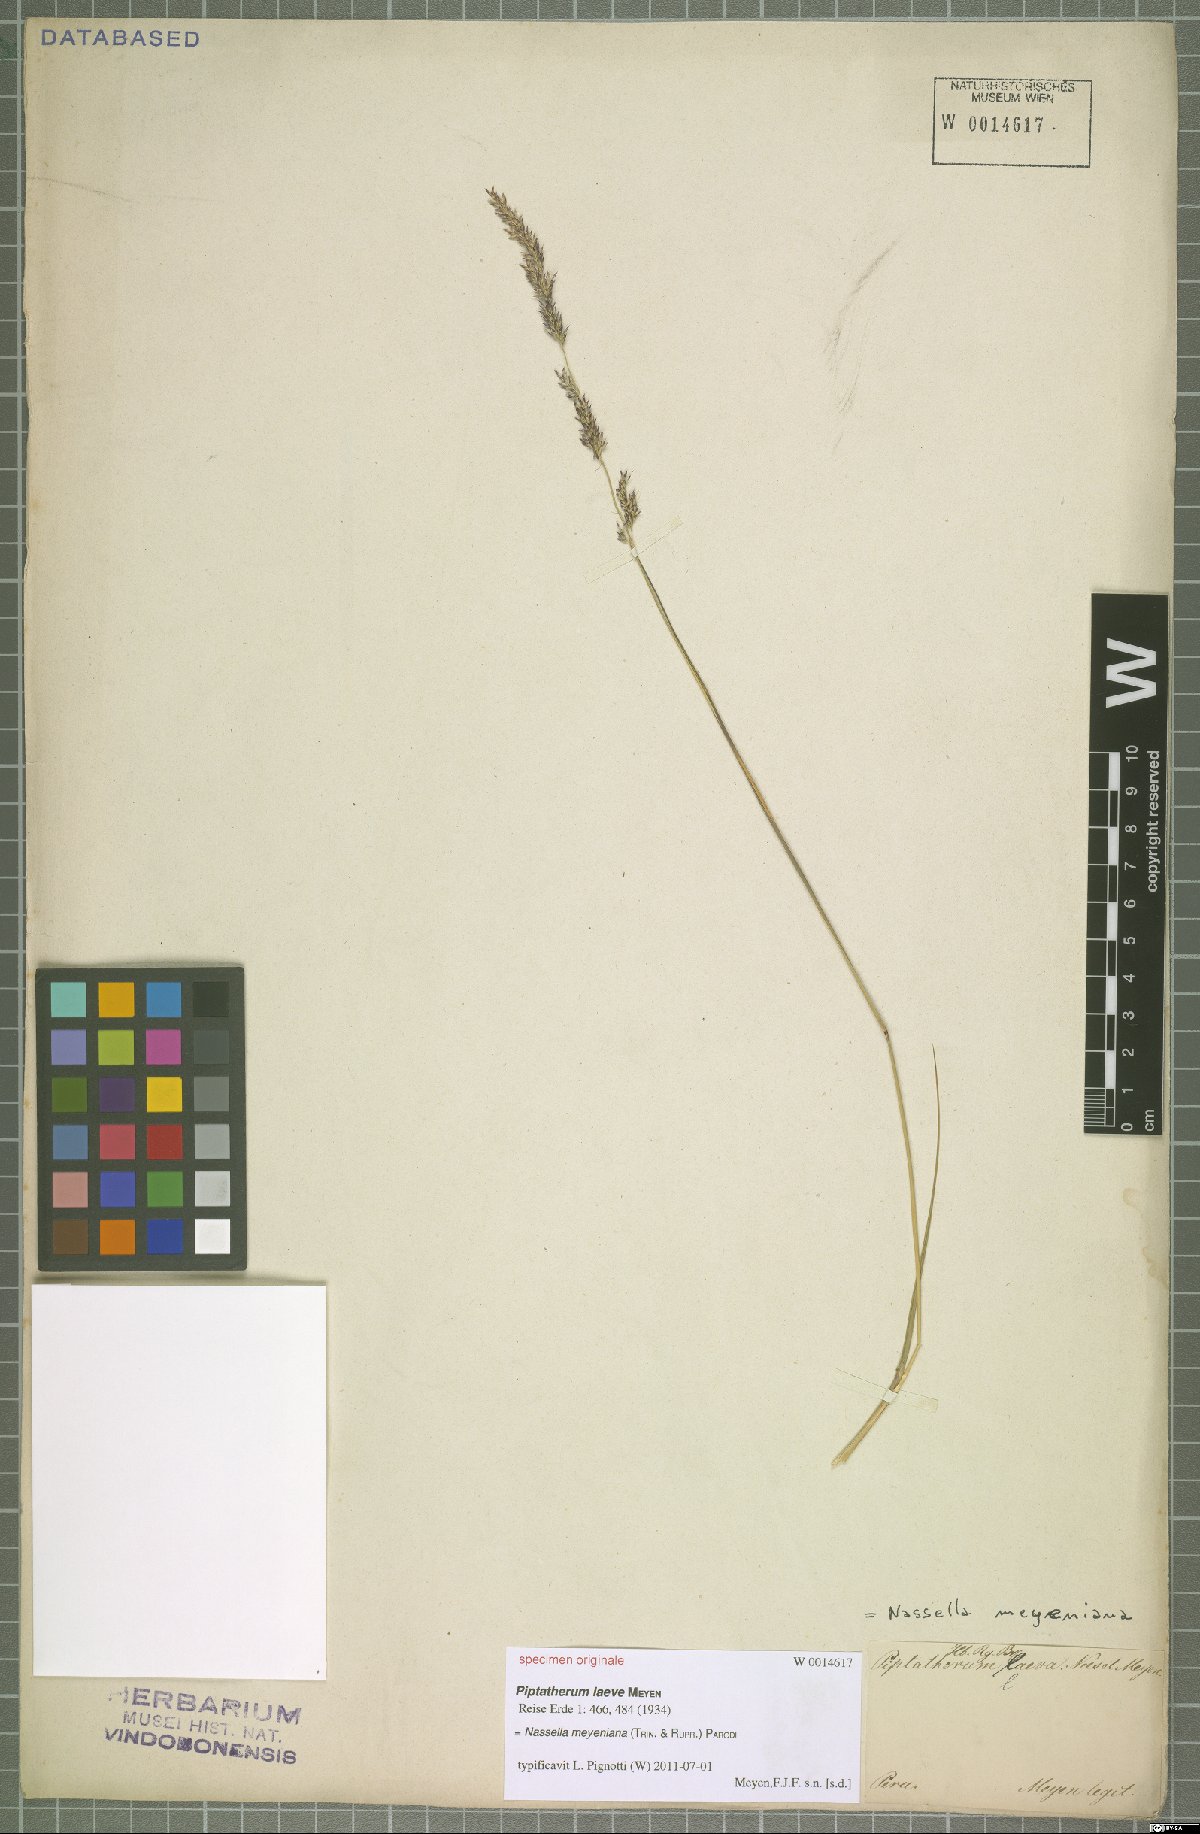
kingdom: Plantae
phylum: Tracheophyta
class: Liliopsida
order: Poales
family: Poaceae
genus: Nassella
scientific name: Nassella meyeniana
